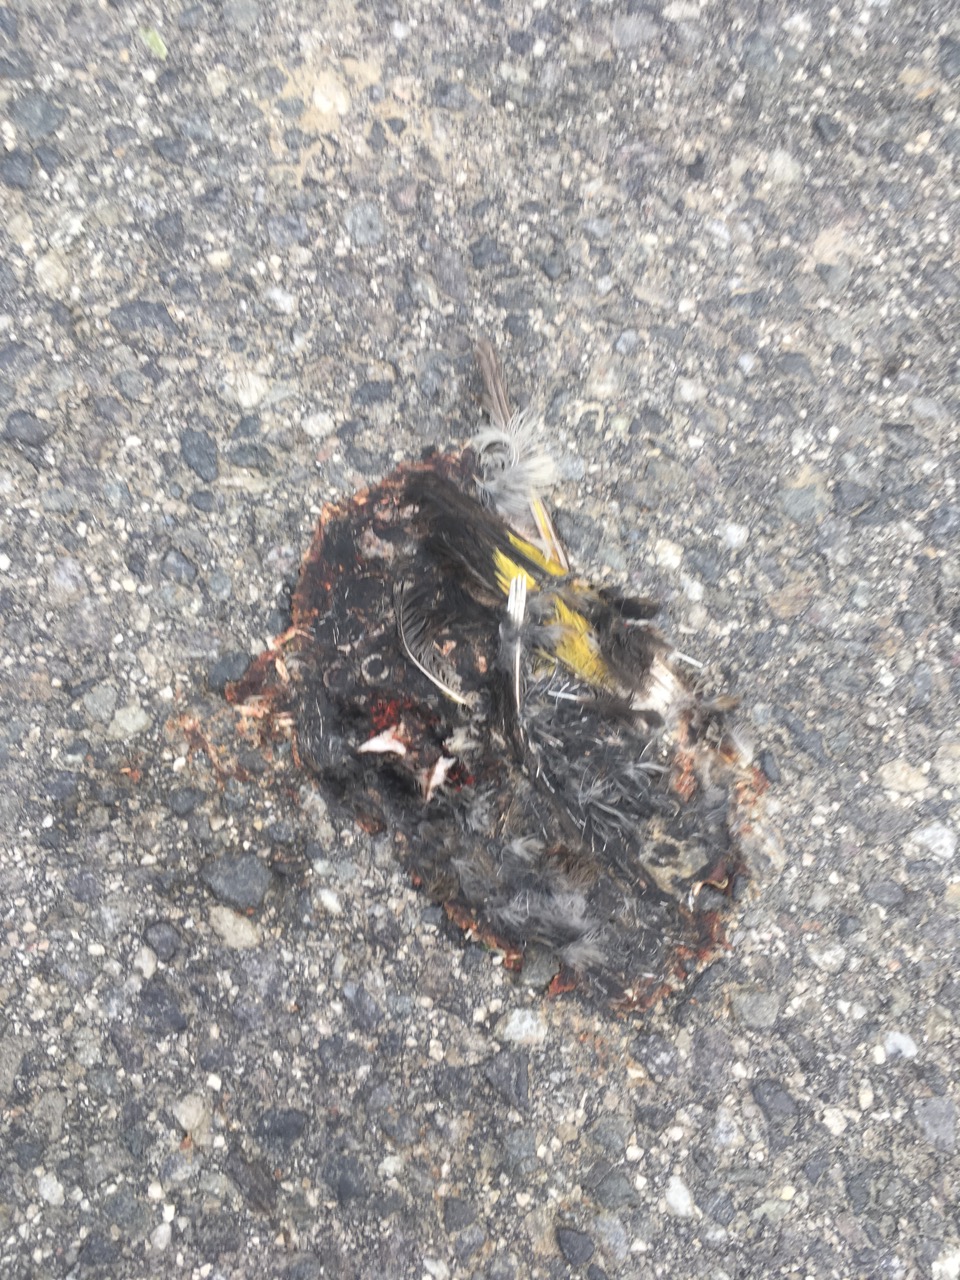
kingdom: Animalia
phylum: Chordata
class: Aves
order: Passeriformes
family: Fringillidae
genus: Carduelis
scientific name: Carduelis carduelis
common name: European goldfinch
